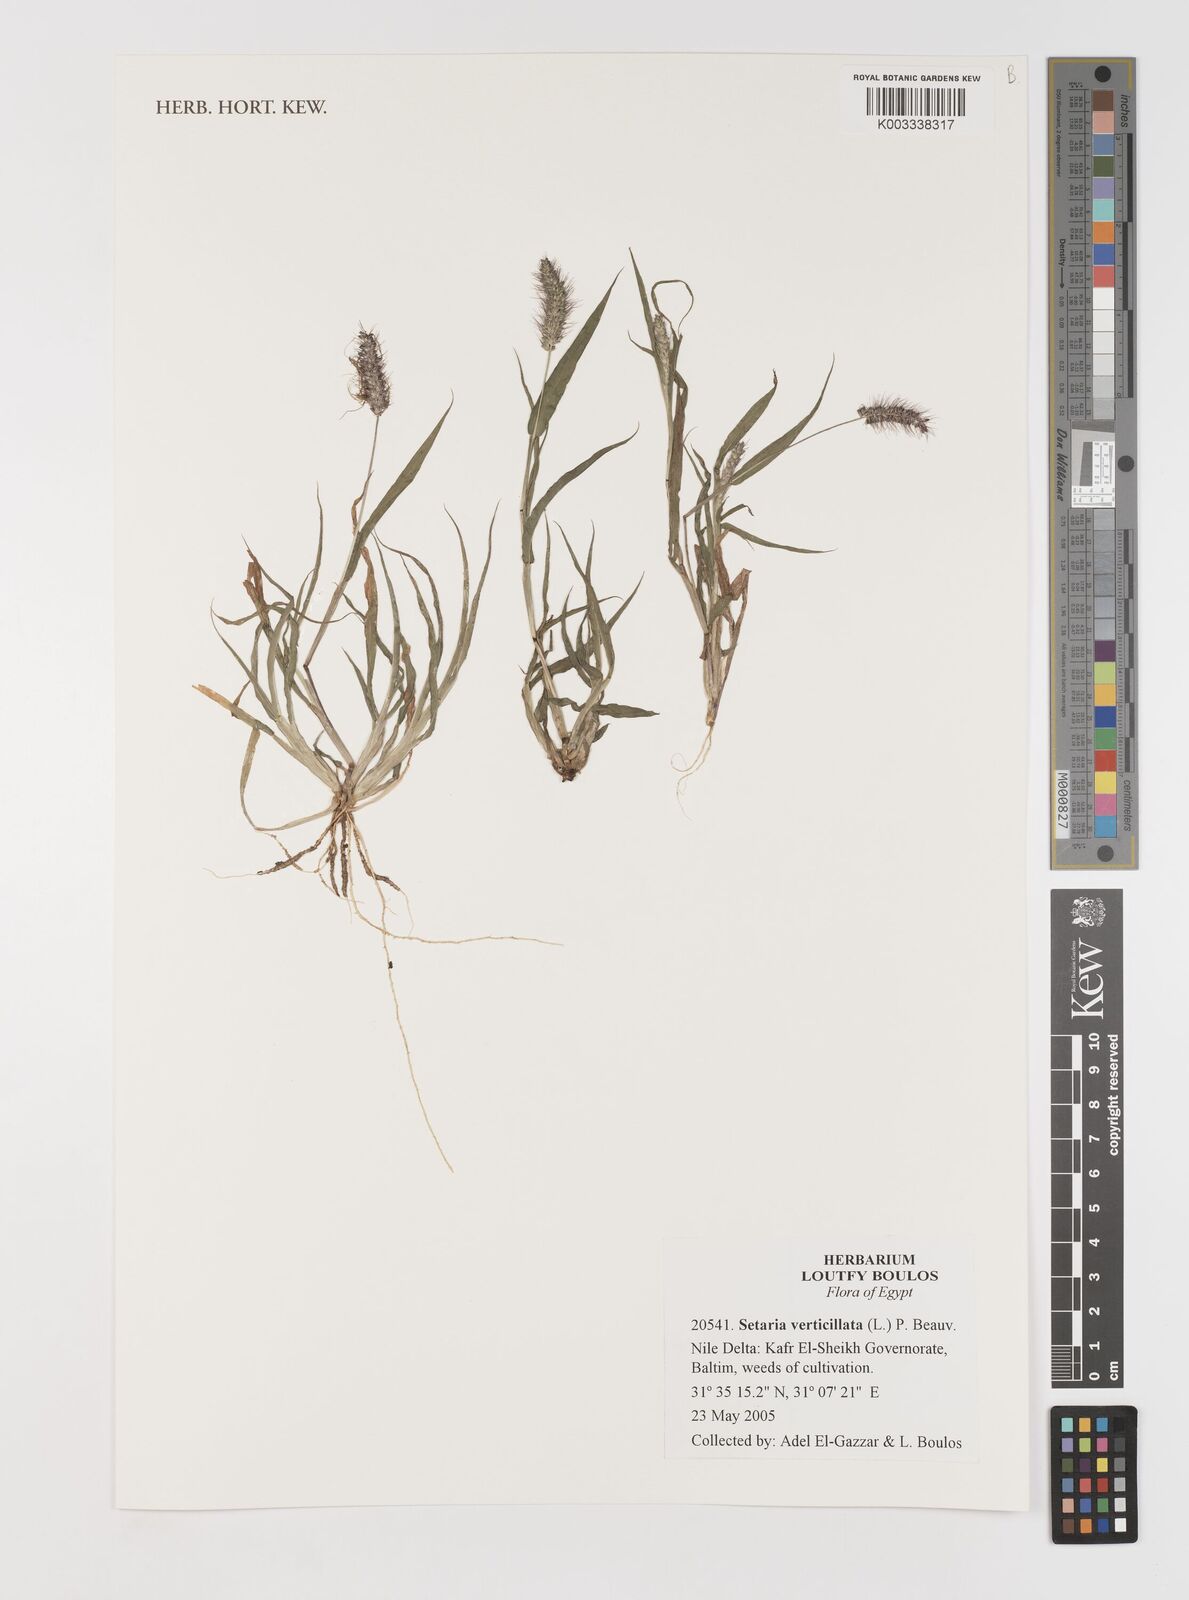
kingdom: Plantae
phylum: Tracheophyta
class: Liliopsida
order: Poales
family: Poaceae
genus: Setaria
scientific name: Setaria verticillata
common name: Hooked bristlegrass
